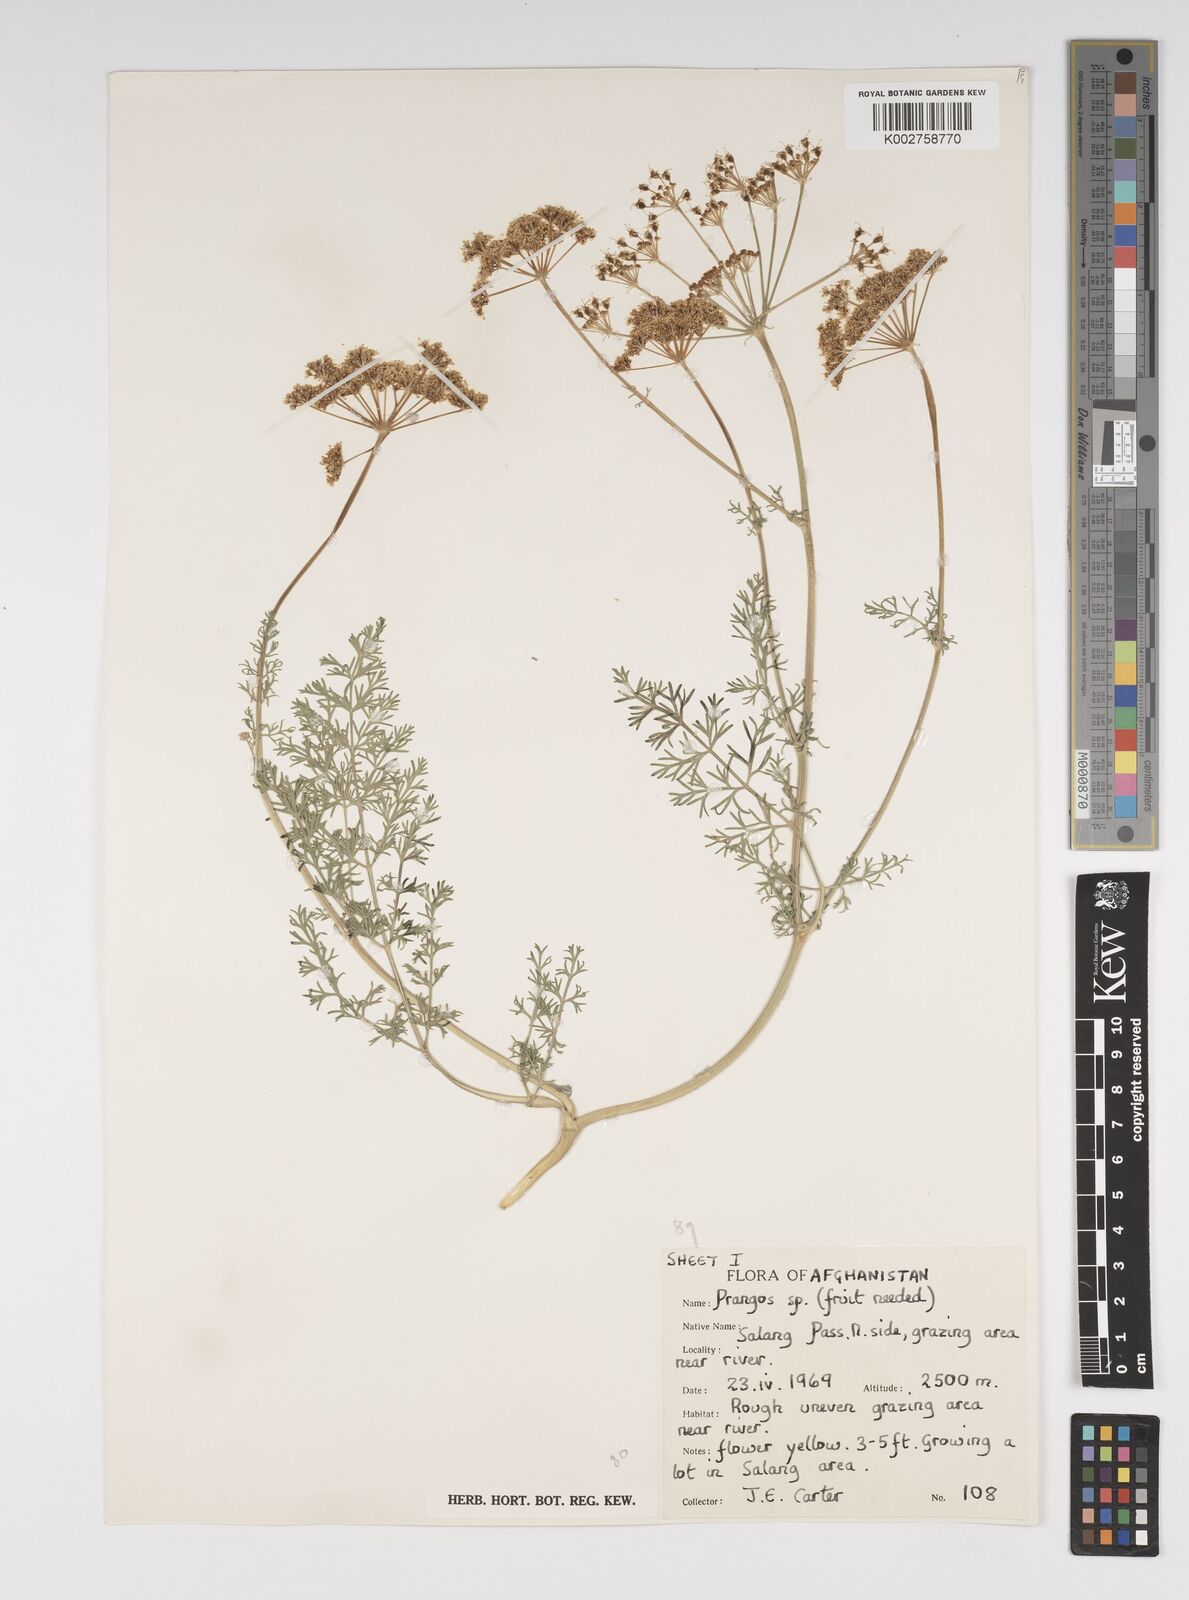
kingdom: Plantae
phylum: Tracheophyta
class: Magnoliopsida
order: Apiales
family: Apiaceae
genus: Cachrys
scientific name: Cachrys
